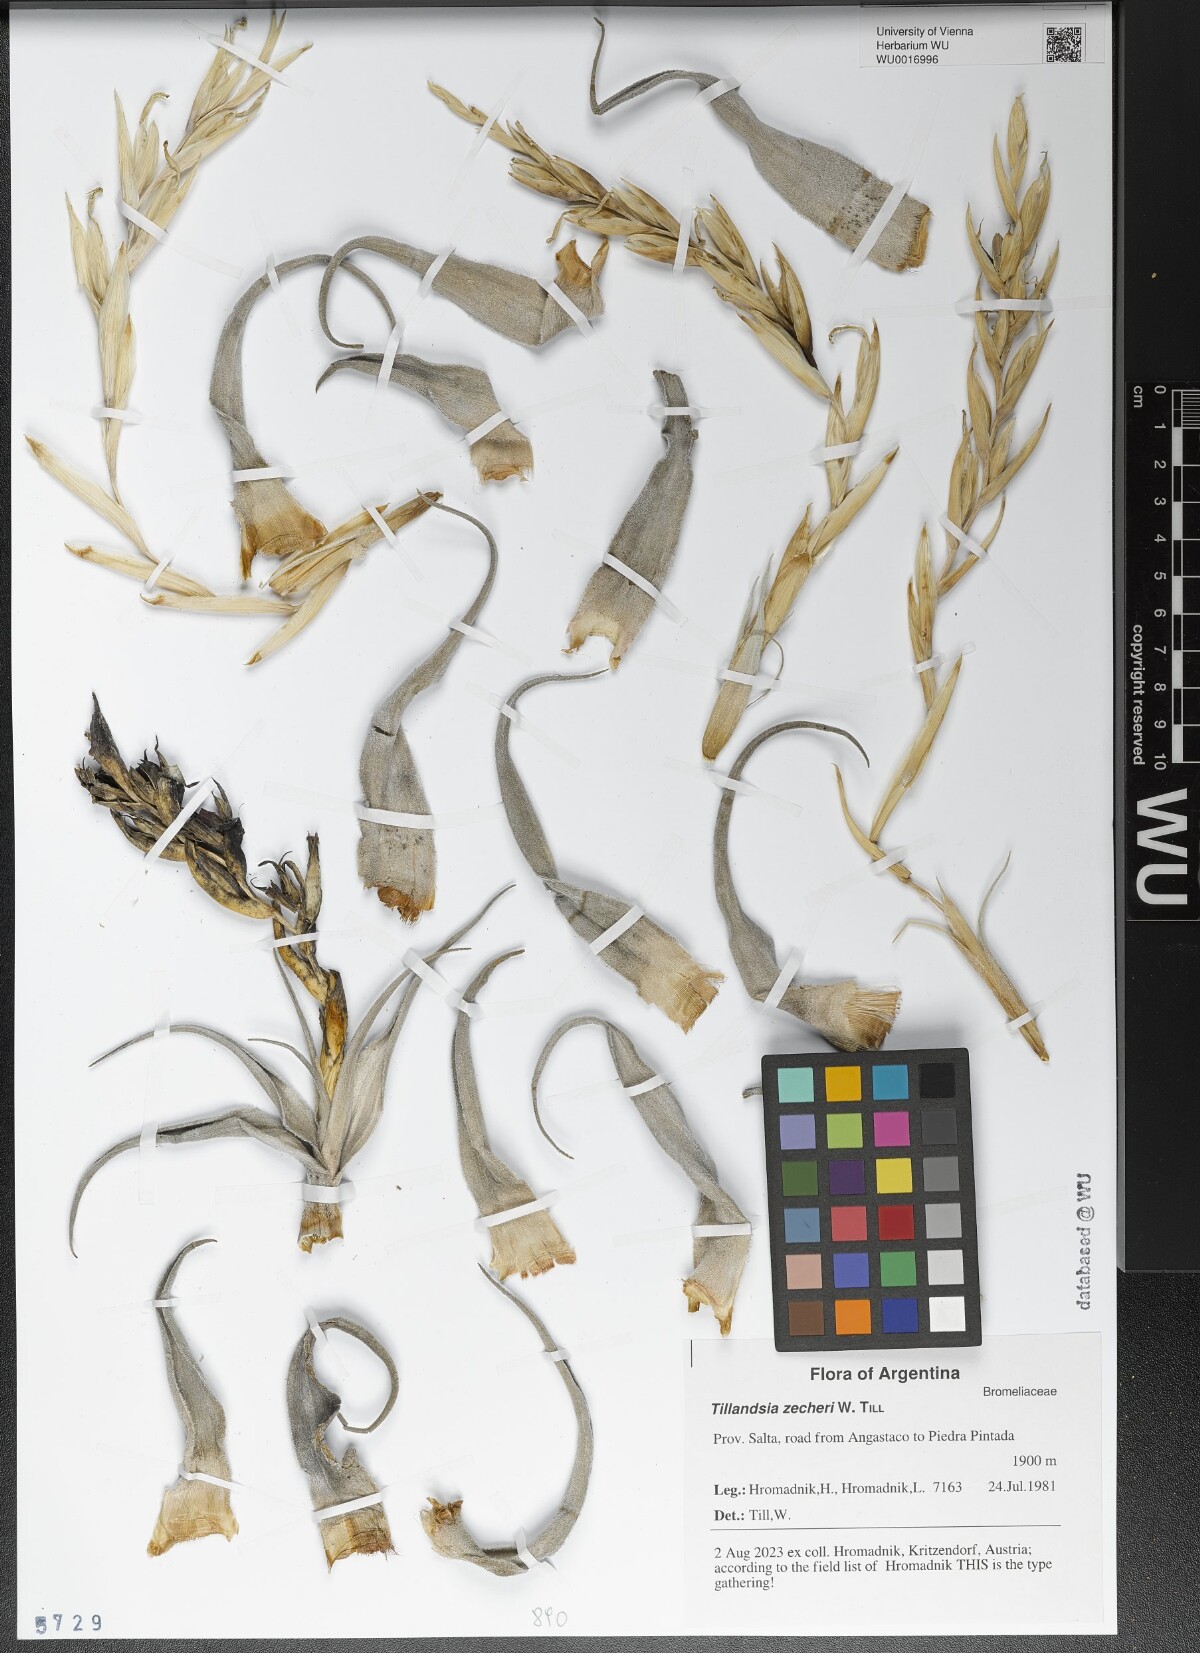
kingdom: Plantae
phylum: Tracheophyta
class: Liliopsida
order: Poales
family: Bromeliaceae
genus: Tillandsia
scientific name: Tillandsia zecheri
